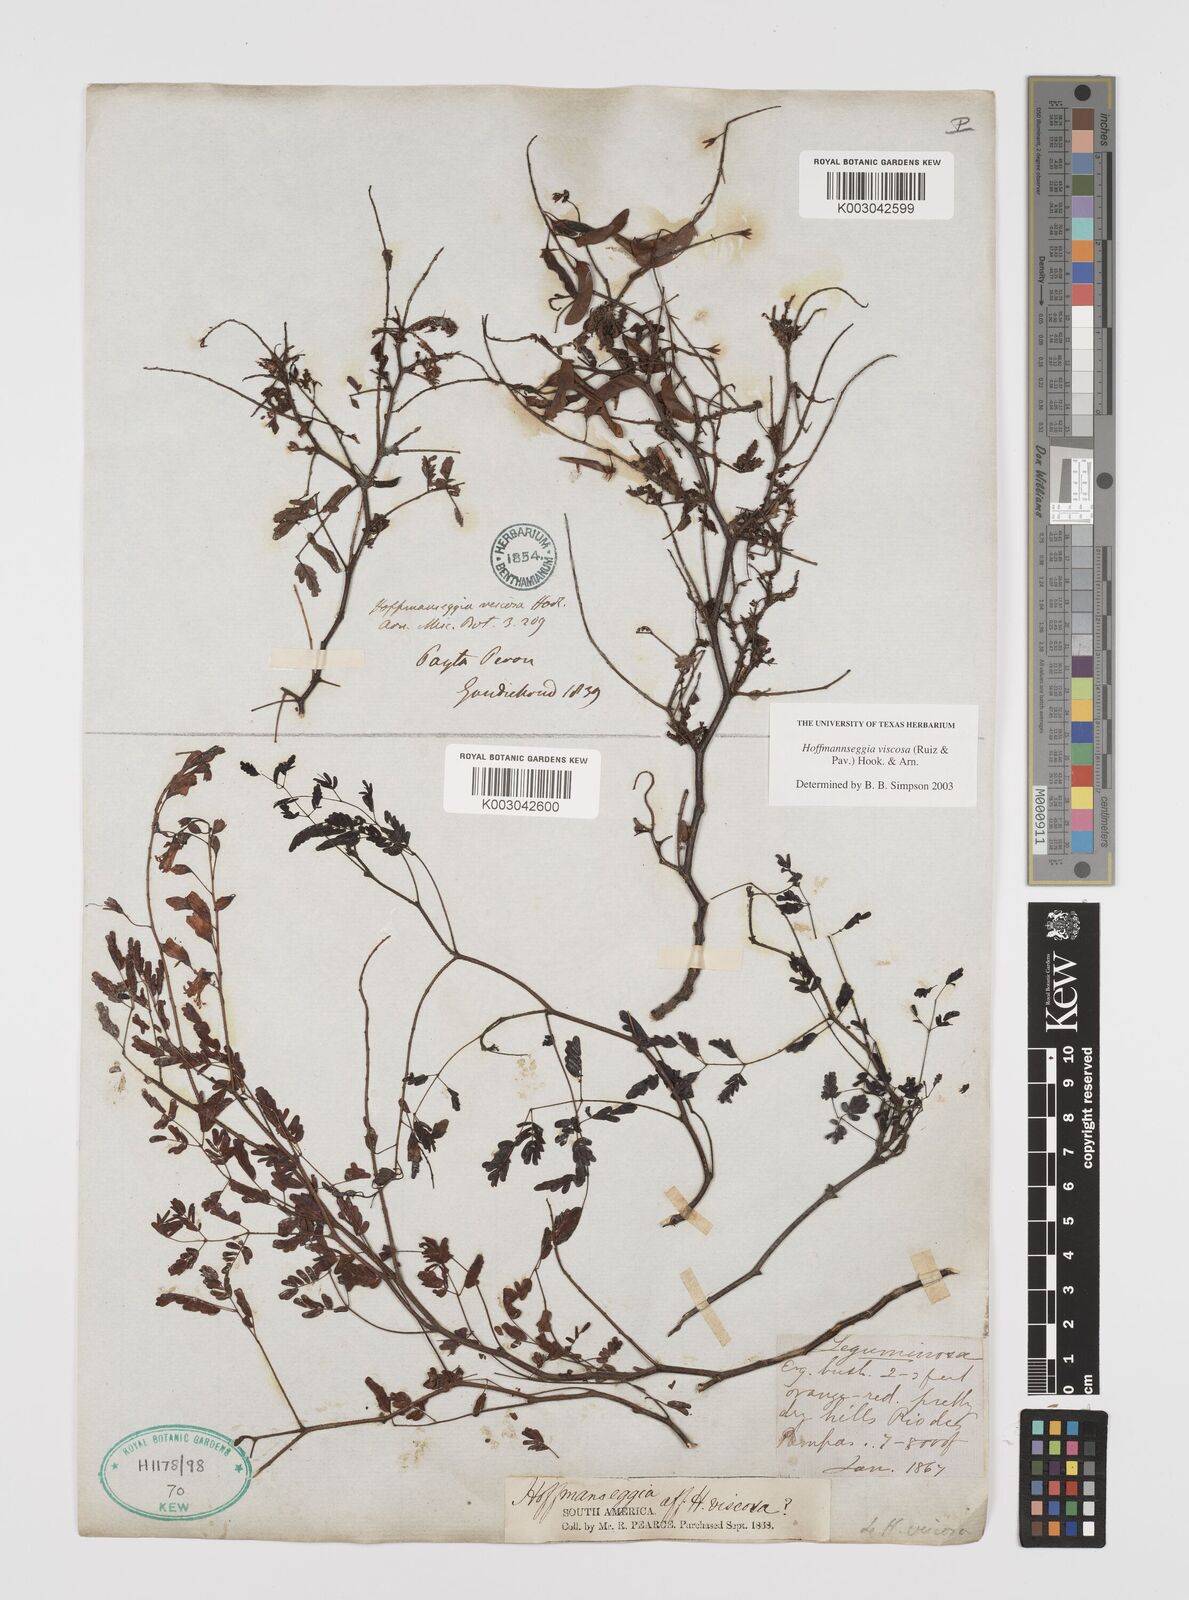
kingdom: Plantae
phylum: Tracheophyta
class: Magnoliopsida
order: Fabales
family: Fabaceae
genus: Hoffmannseggia
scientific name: Hoffmannseggia viscosa
